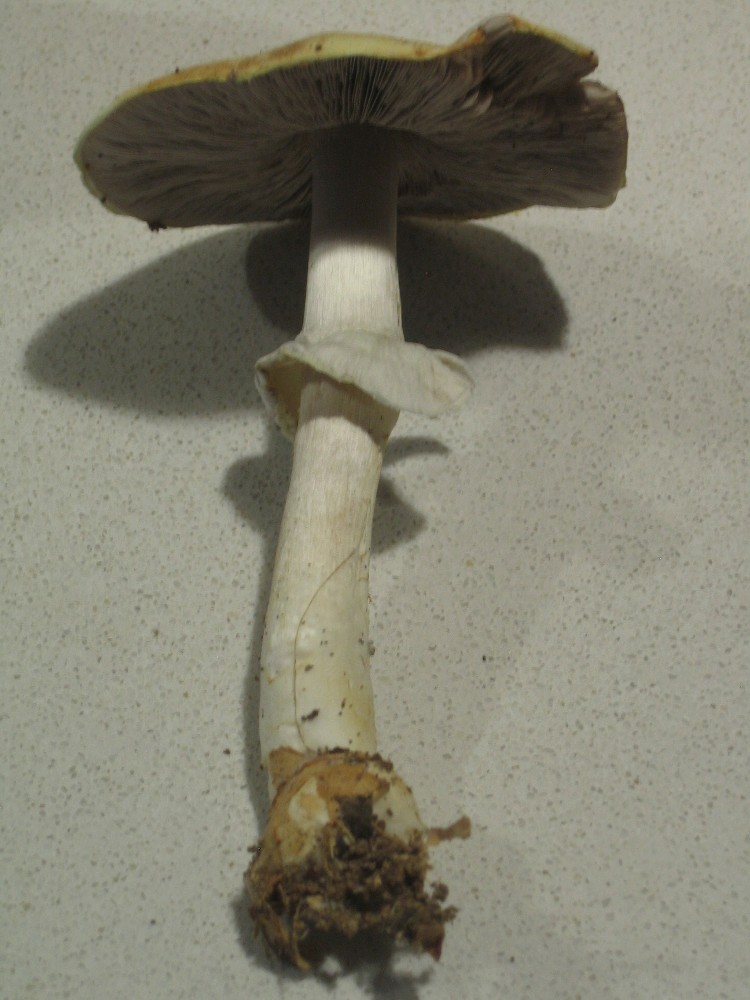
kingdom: Fungi
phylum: Basidiomycota
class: Agaricomycetes
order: Agaricales
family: Agaricaceae
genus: Agaricus
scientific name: Agaricus sylvicola
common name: gulhvid champignon
